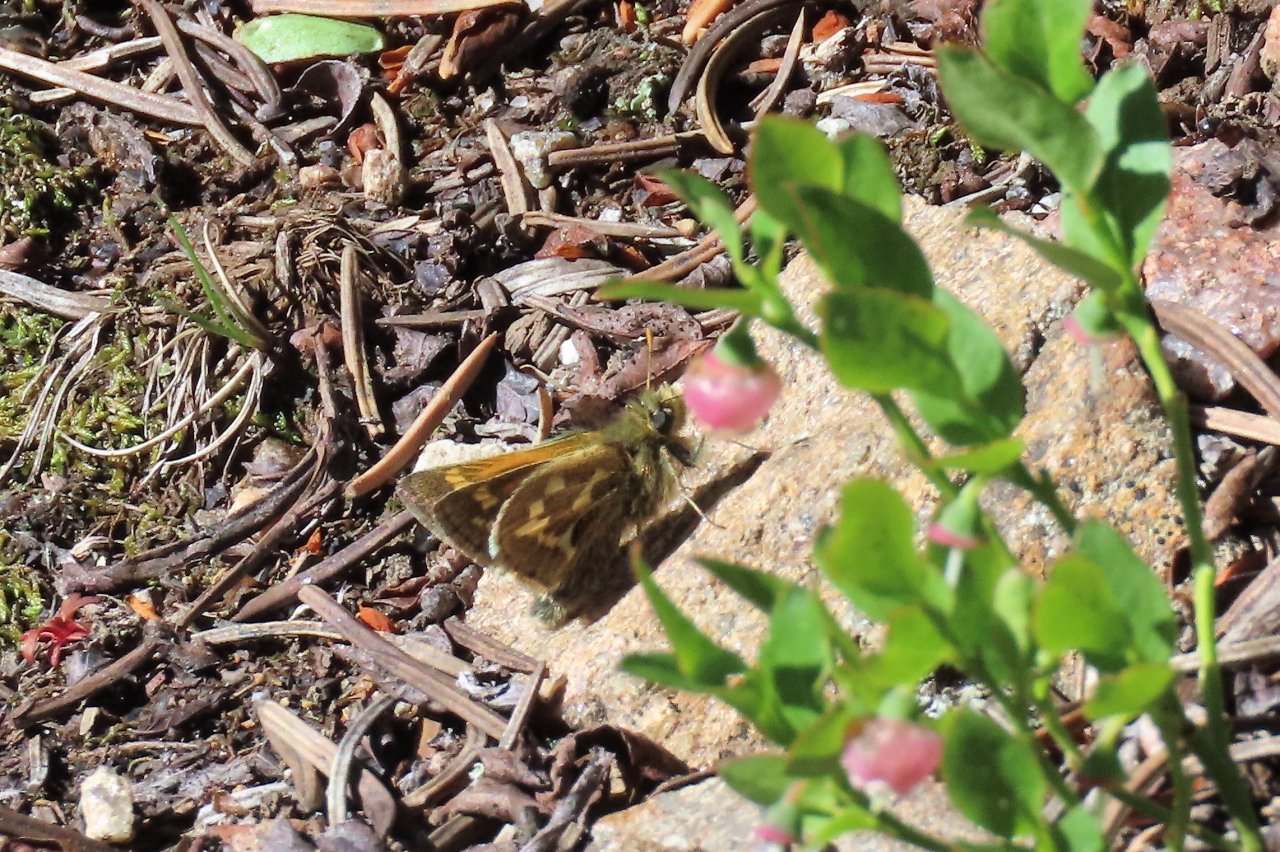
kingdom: Animalia
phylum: Arthropoda
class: Insecta
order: Lepidoptera
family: Hesperiidae
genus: Polites
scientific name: Polites sabuleti
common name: Draco Skipper
